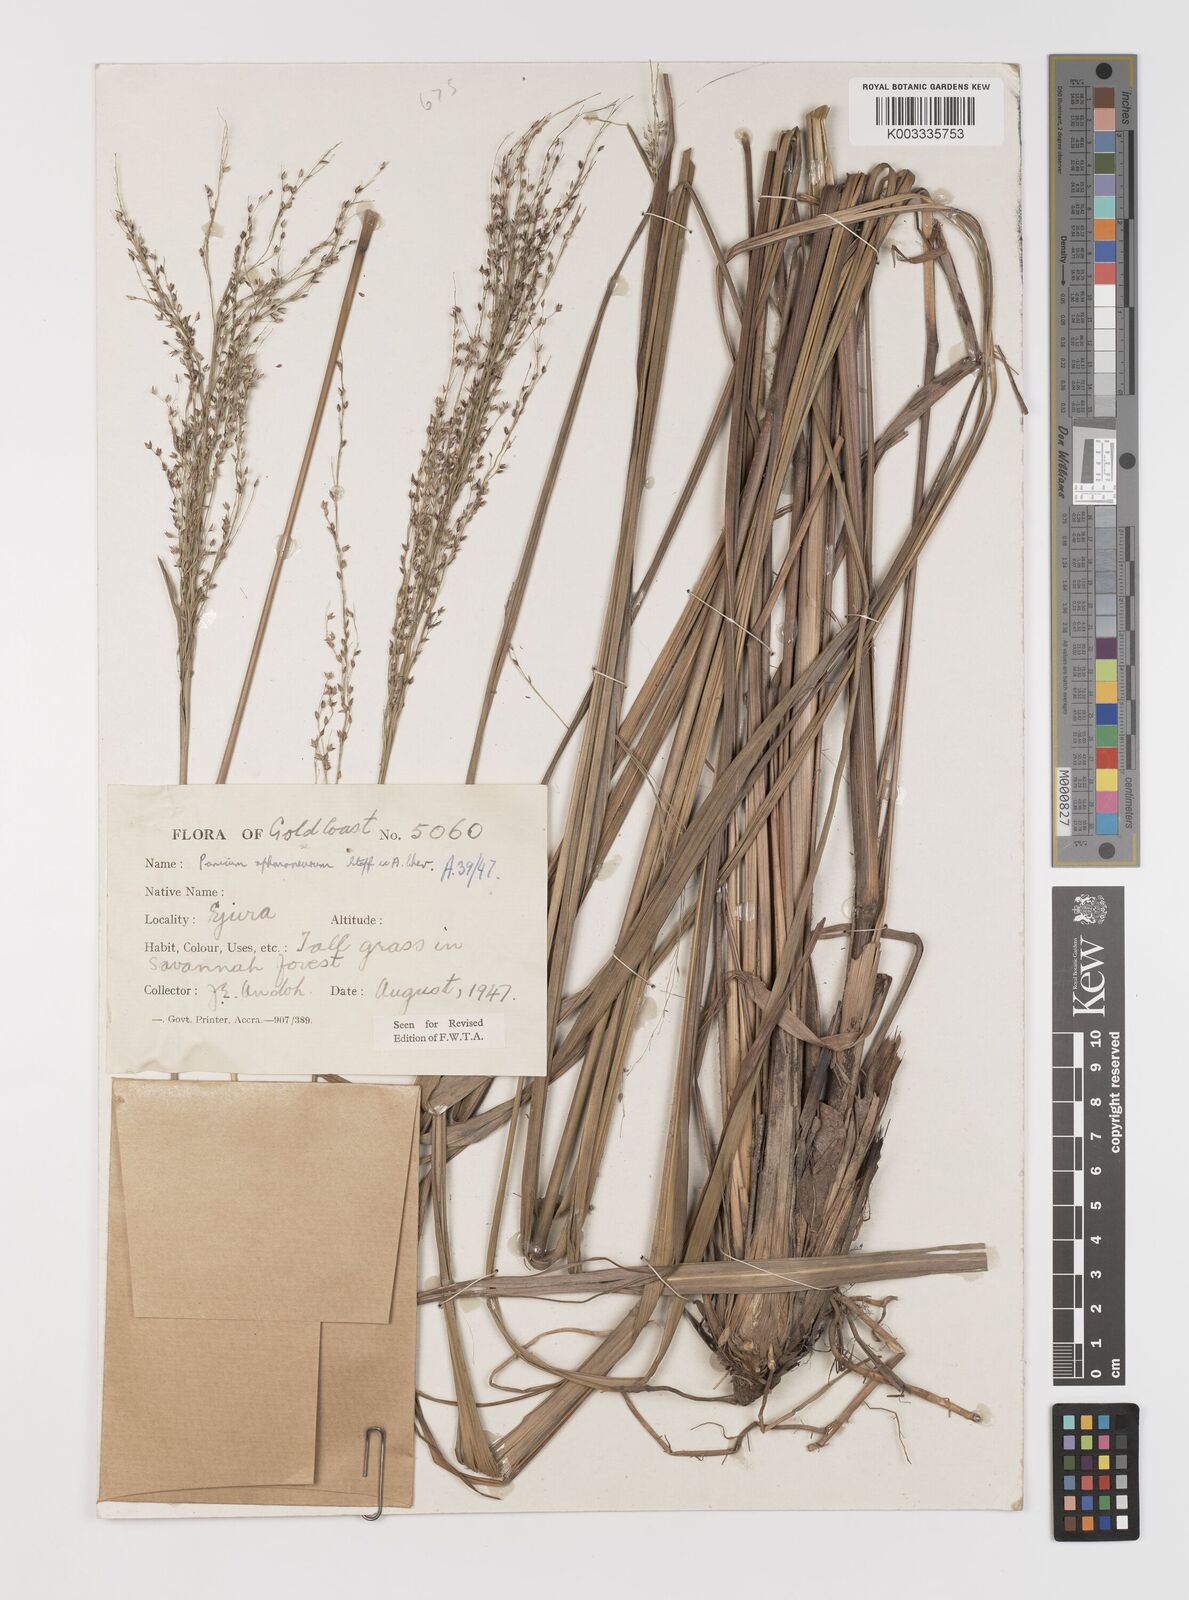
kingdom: Plantae
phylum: Tracheophyta
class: Liliopsida
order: Poales
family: Poaceae
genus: Panicum
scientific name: Panicum fluviicola
